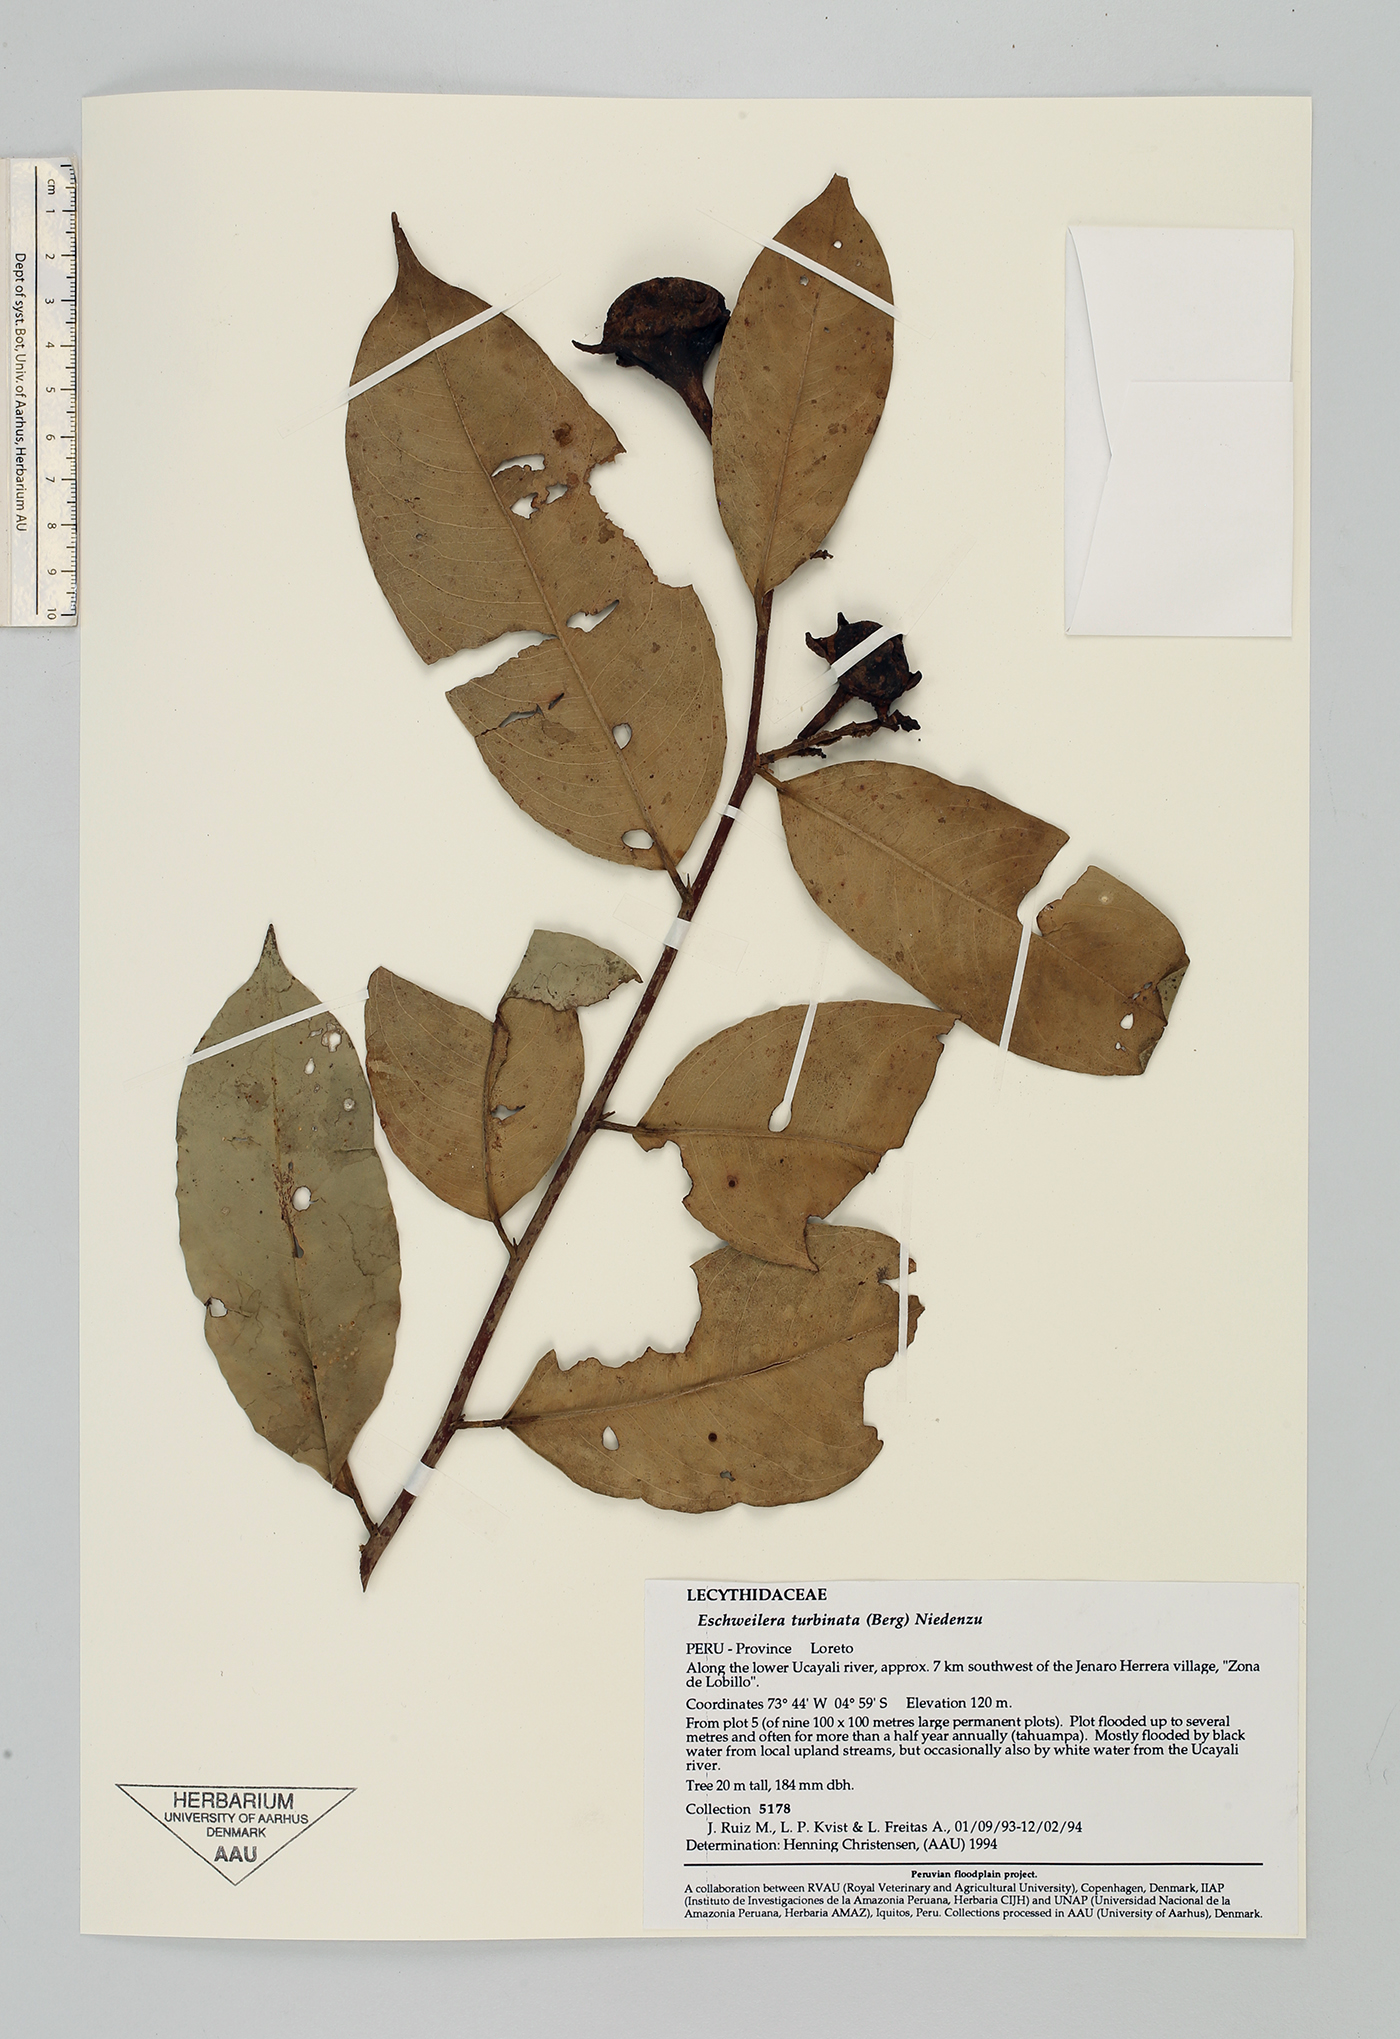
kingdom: Plantae
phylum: Tracheophyta
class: Magnoliopsida
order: Ericales
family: Lecythidaceae
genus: Eschweilera
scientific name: Eschweilera albiflora
